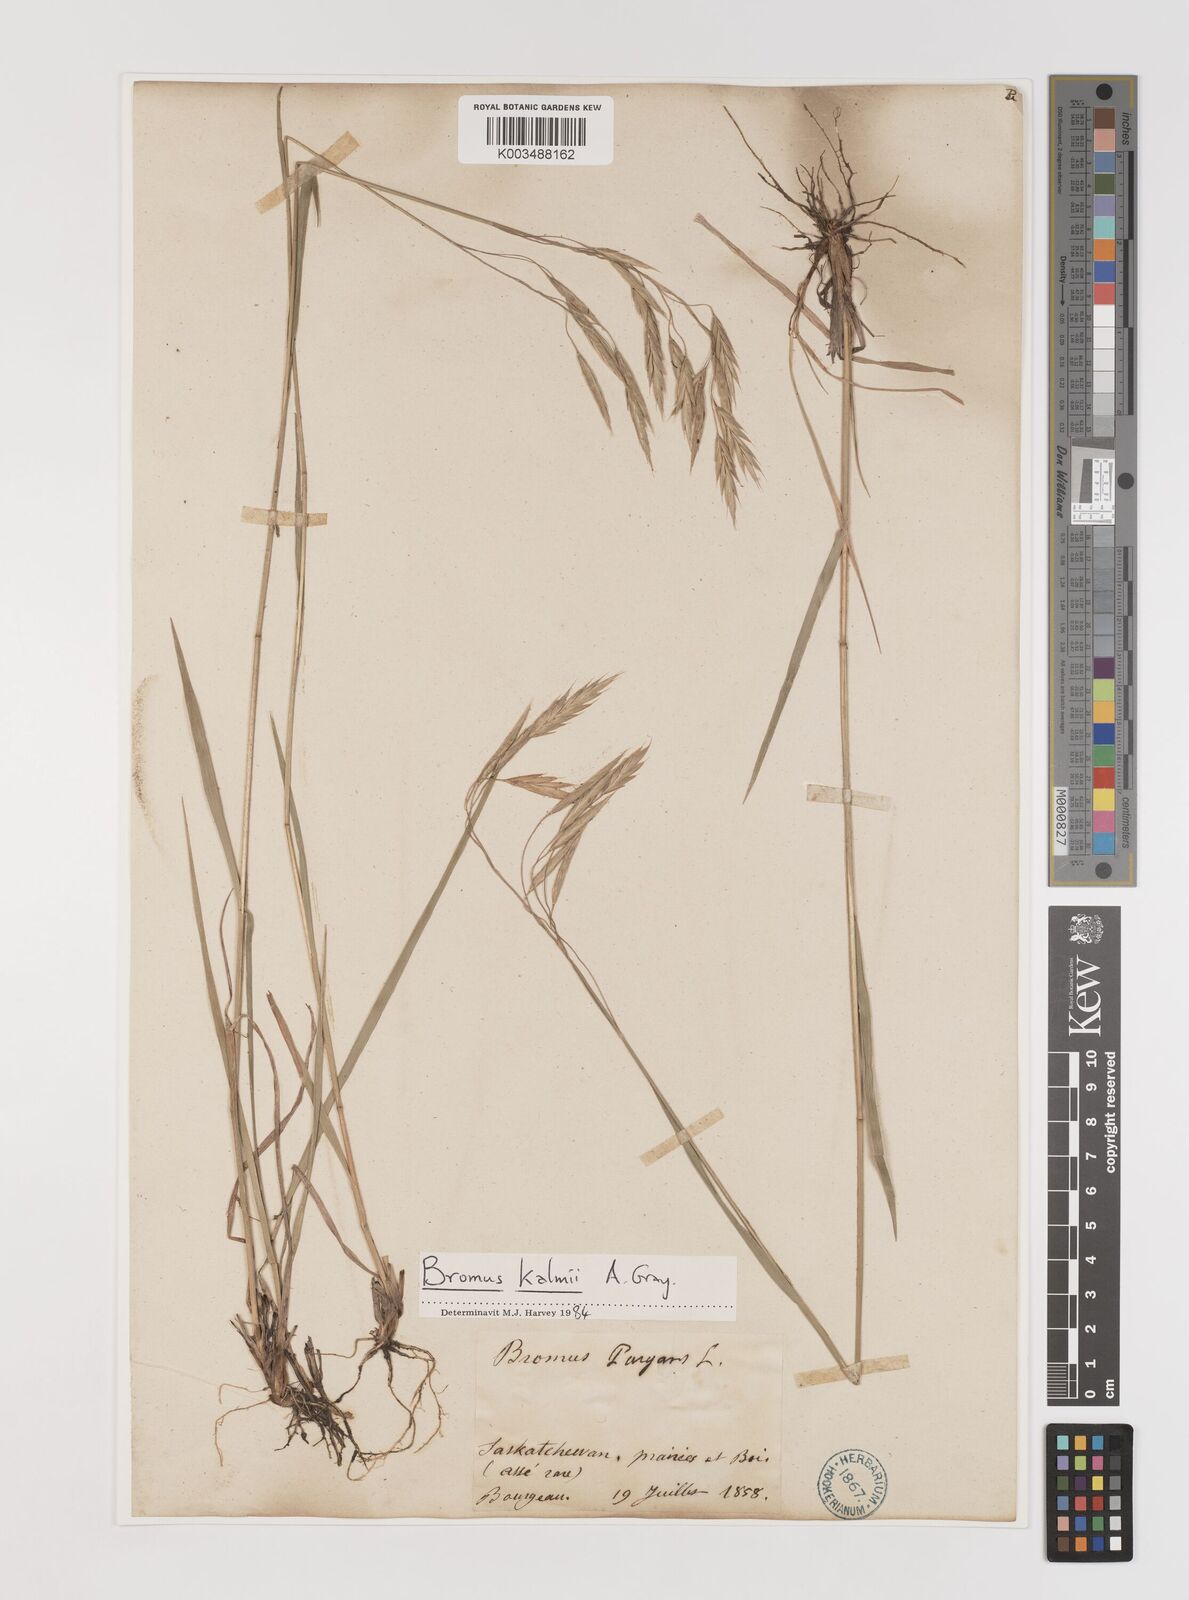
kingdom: Plantae
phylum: Tracheophyta
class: Liliopsida
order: Poales
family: Poaceae
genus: Bromus
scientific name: Bromus kalmii
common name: Kalm brome
